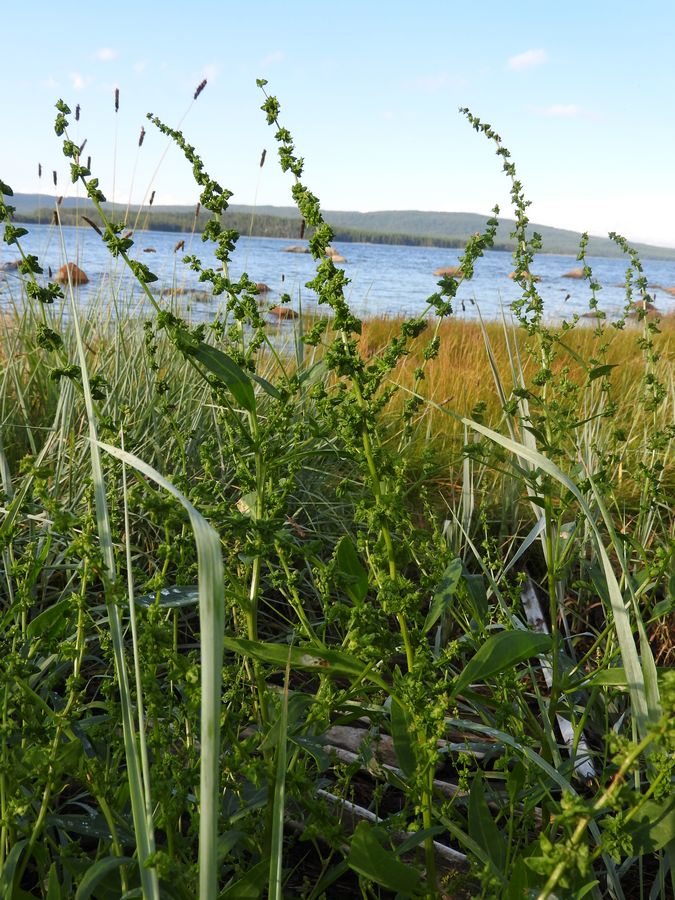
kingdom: Plantae
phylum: Tracheophyta
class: Magnoliopsida
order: Caryophyllales
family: Amaranthaceae
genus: Atriplex
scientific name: Atriplex nudicaulis
